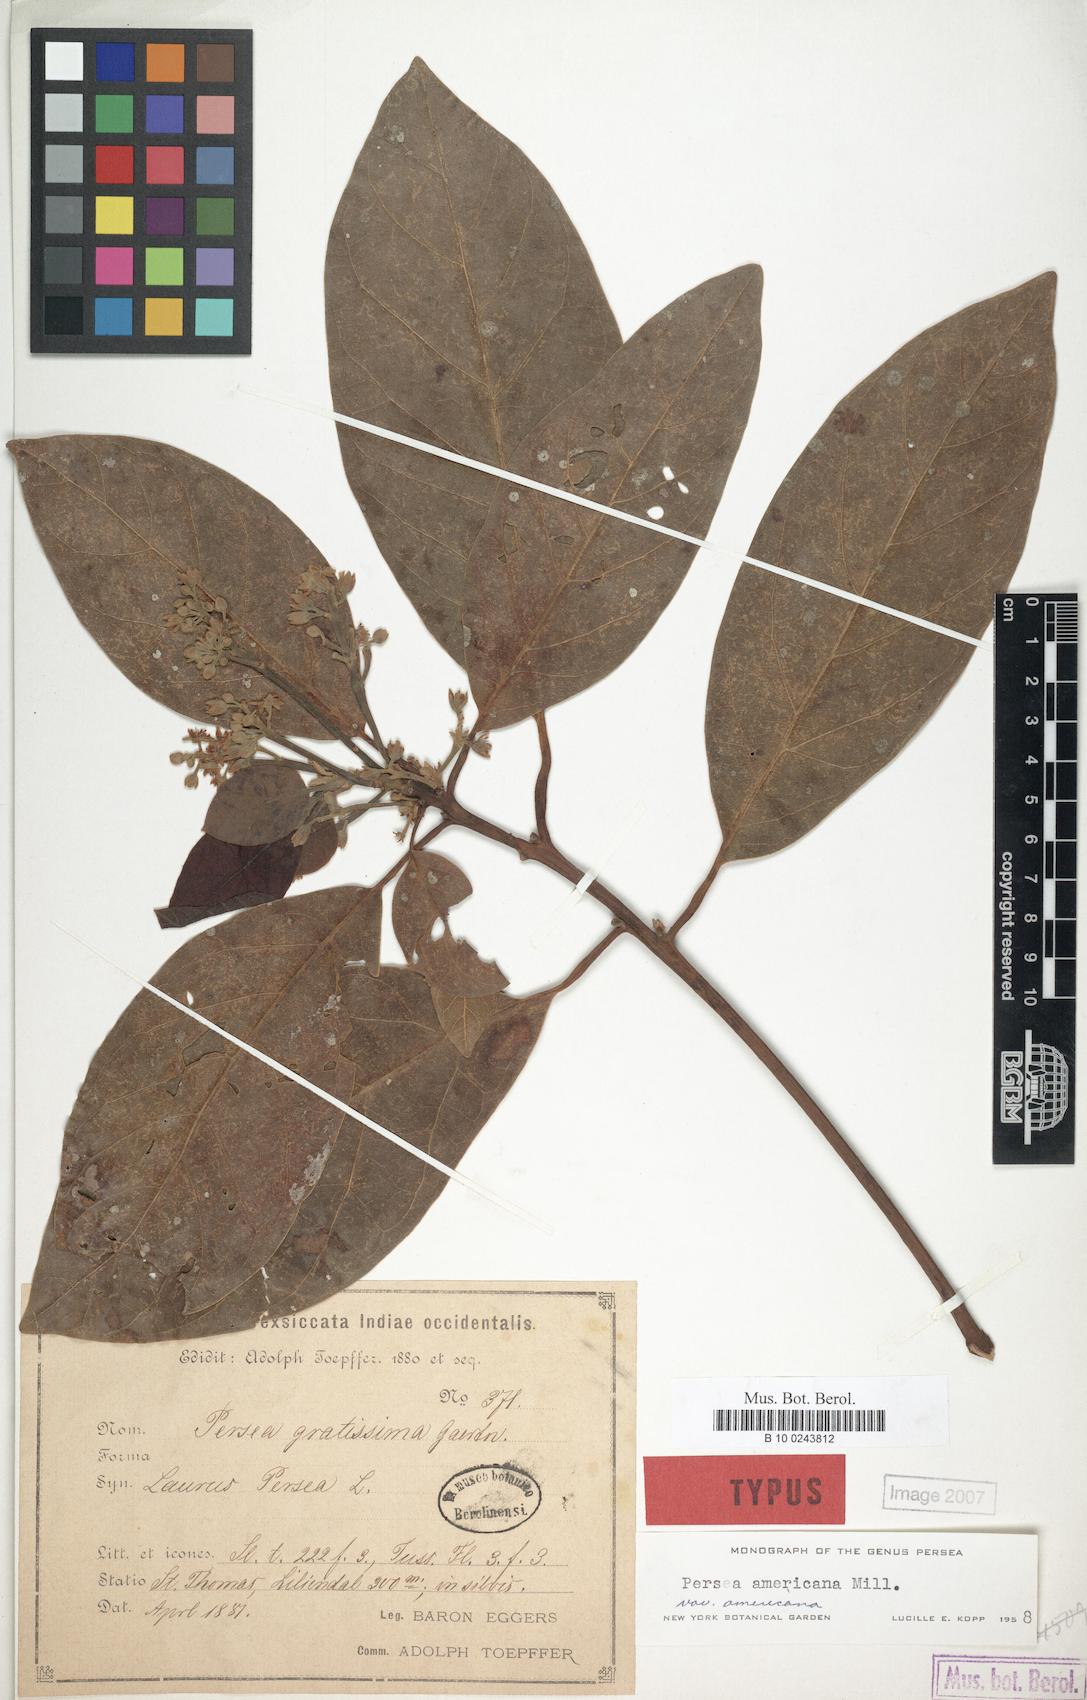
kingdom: Plantae
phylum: Tracheophyta
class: Magnoliopsida
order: Laurales
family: Lauraceae
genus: Persea
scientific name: Persea americana
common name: Avocado
